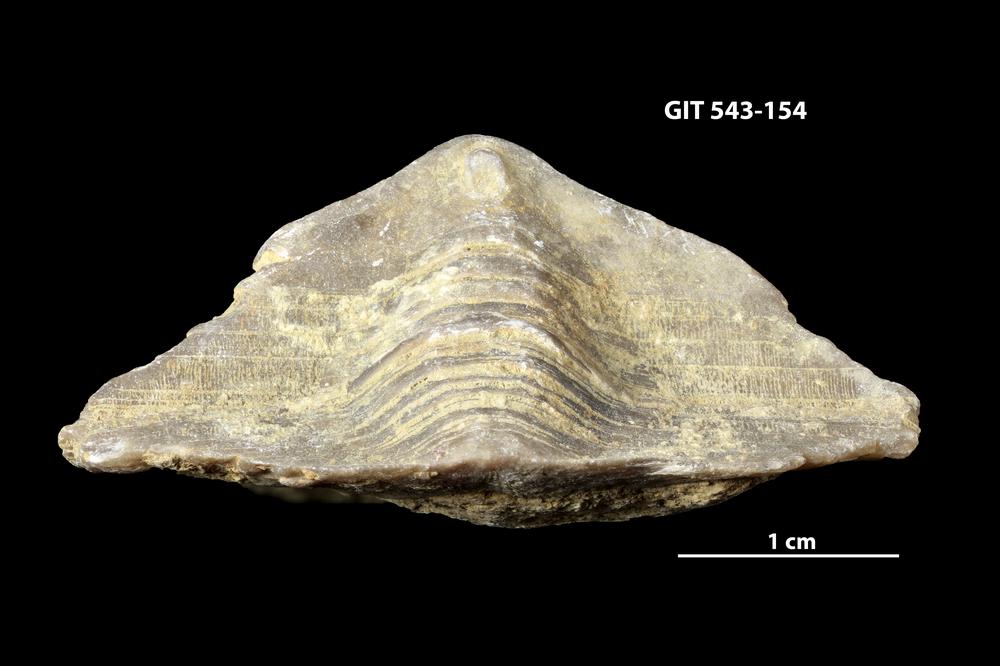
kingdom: Animalia
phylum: Brachiopoda
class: Rhynchonellata
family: Clitambonitidae
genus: Clinambon
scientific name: Clinambon anomalus
